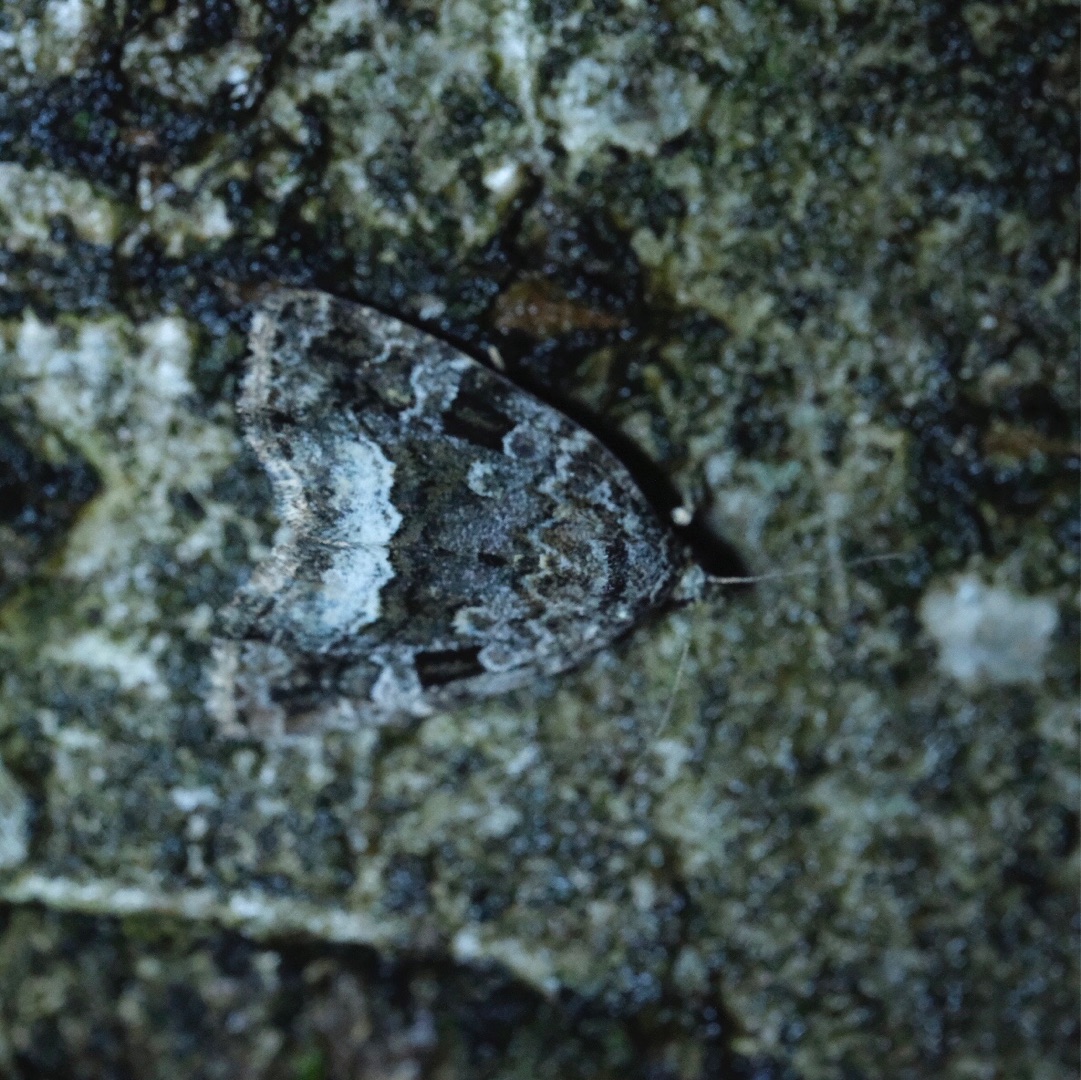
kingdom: Animalia
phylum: Arthropoda
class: Insecta
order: Lepidoptera
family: Noctuidae
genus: Deltote
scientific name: Deltote pygarga
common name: Hvidhjørnet dagugle
